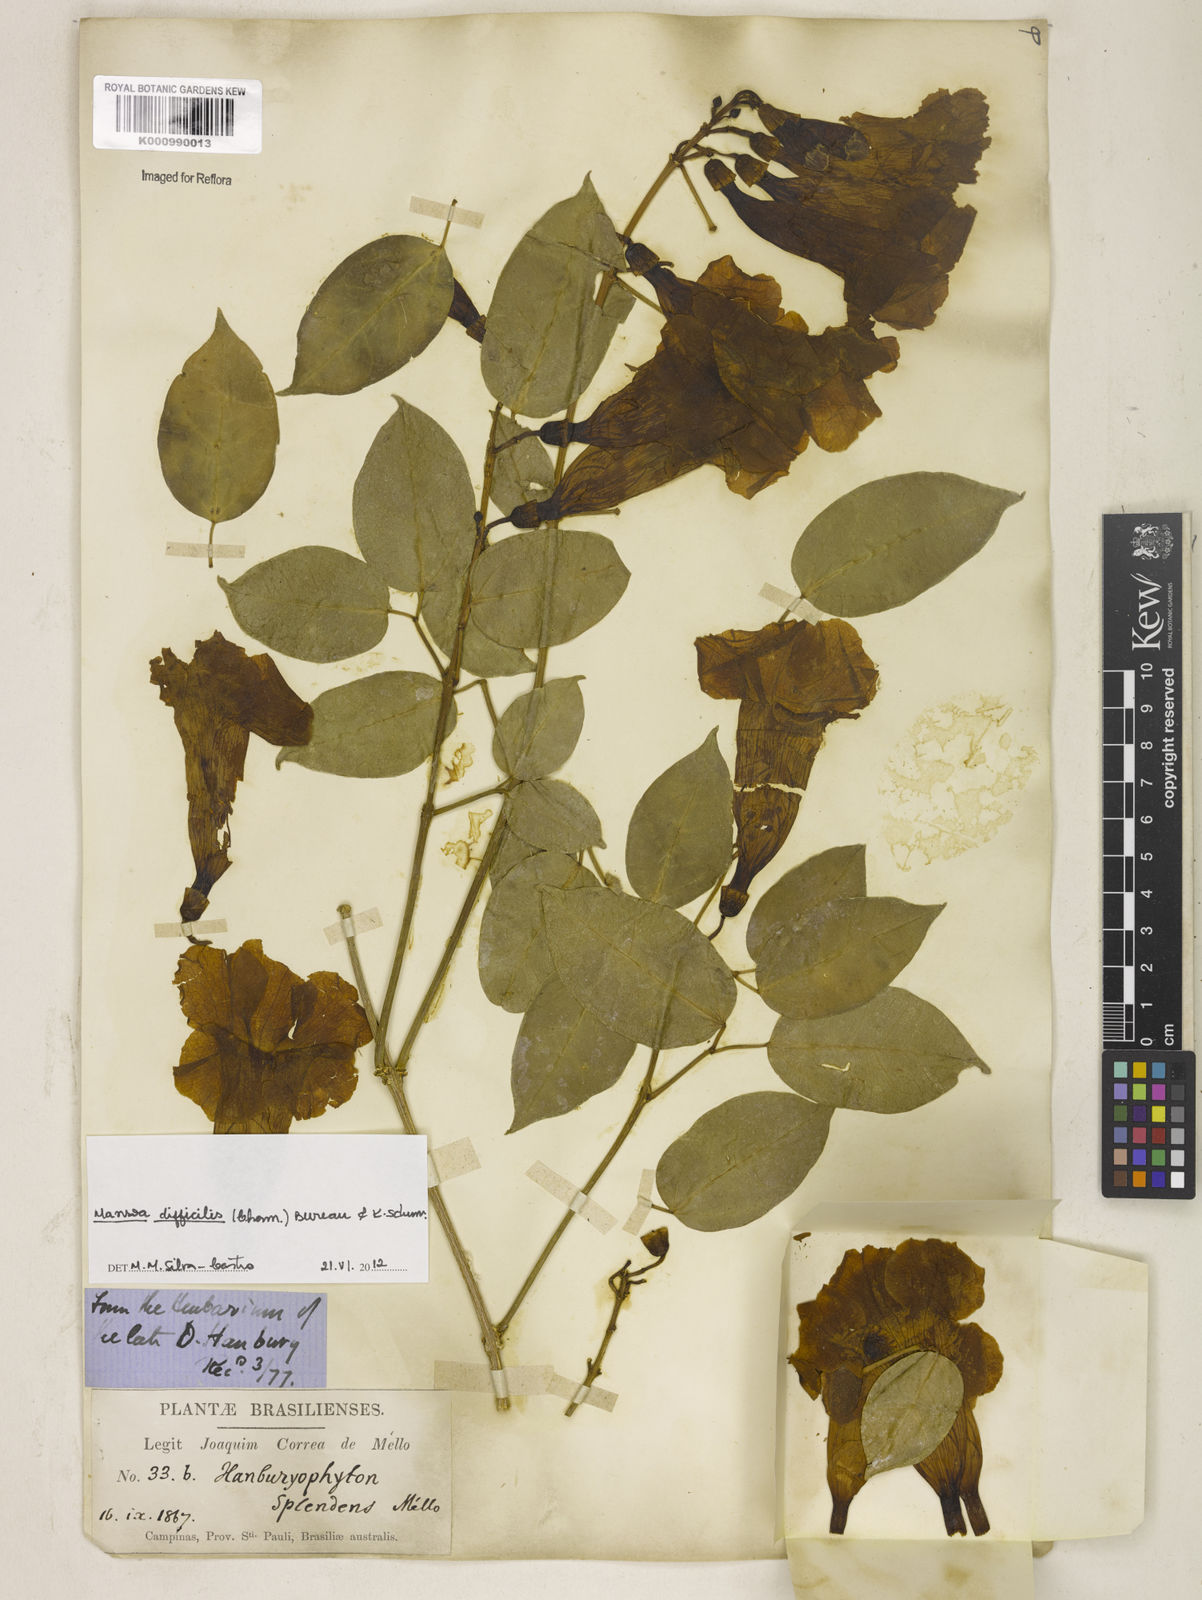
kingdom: Plantae
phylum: Tracheophyta
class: Magnoliopsida
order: Lamiales
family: Bignoniaceae
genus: Mansoa
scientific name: Mansoa difficilis
